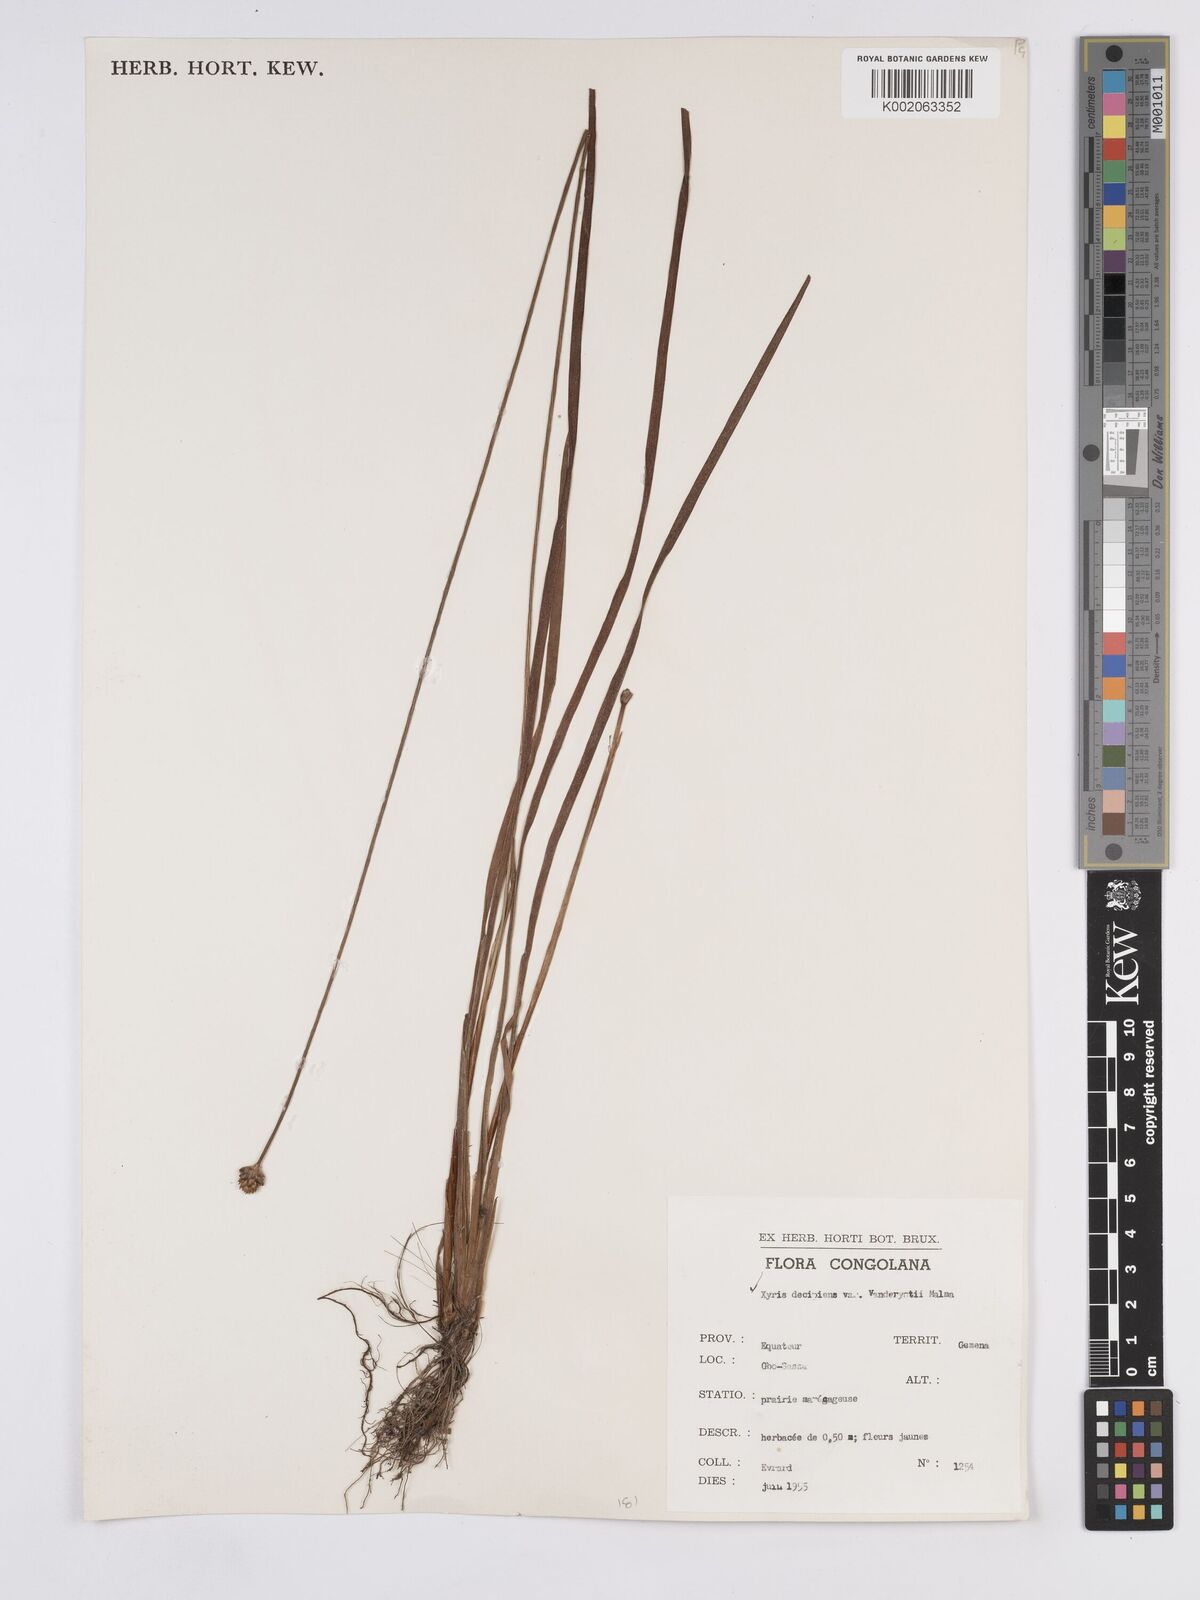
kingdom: Plantae
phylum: Tracheophyta
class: Liliopsida
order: Poales
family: Xyridaceae
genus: Xyris
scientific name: Xyris decipiens
